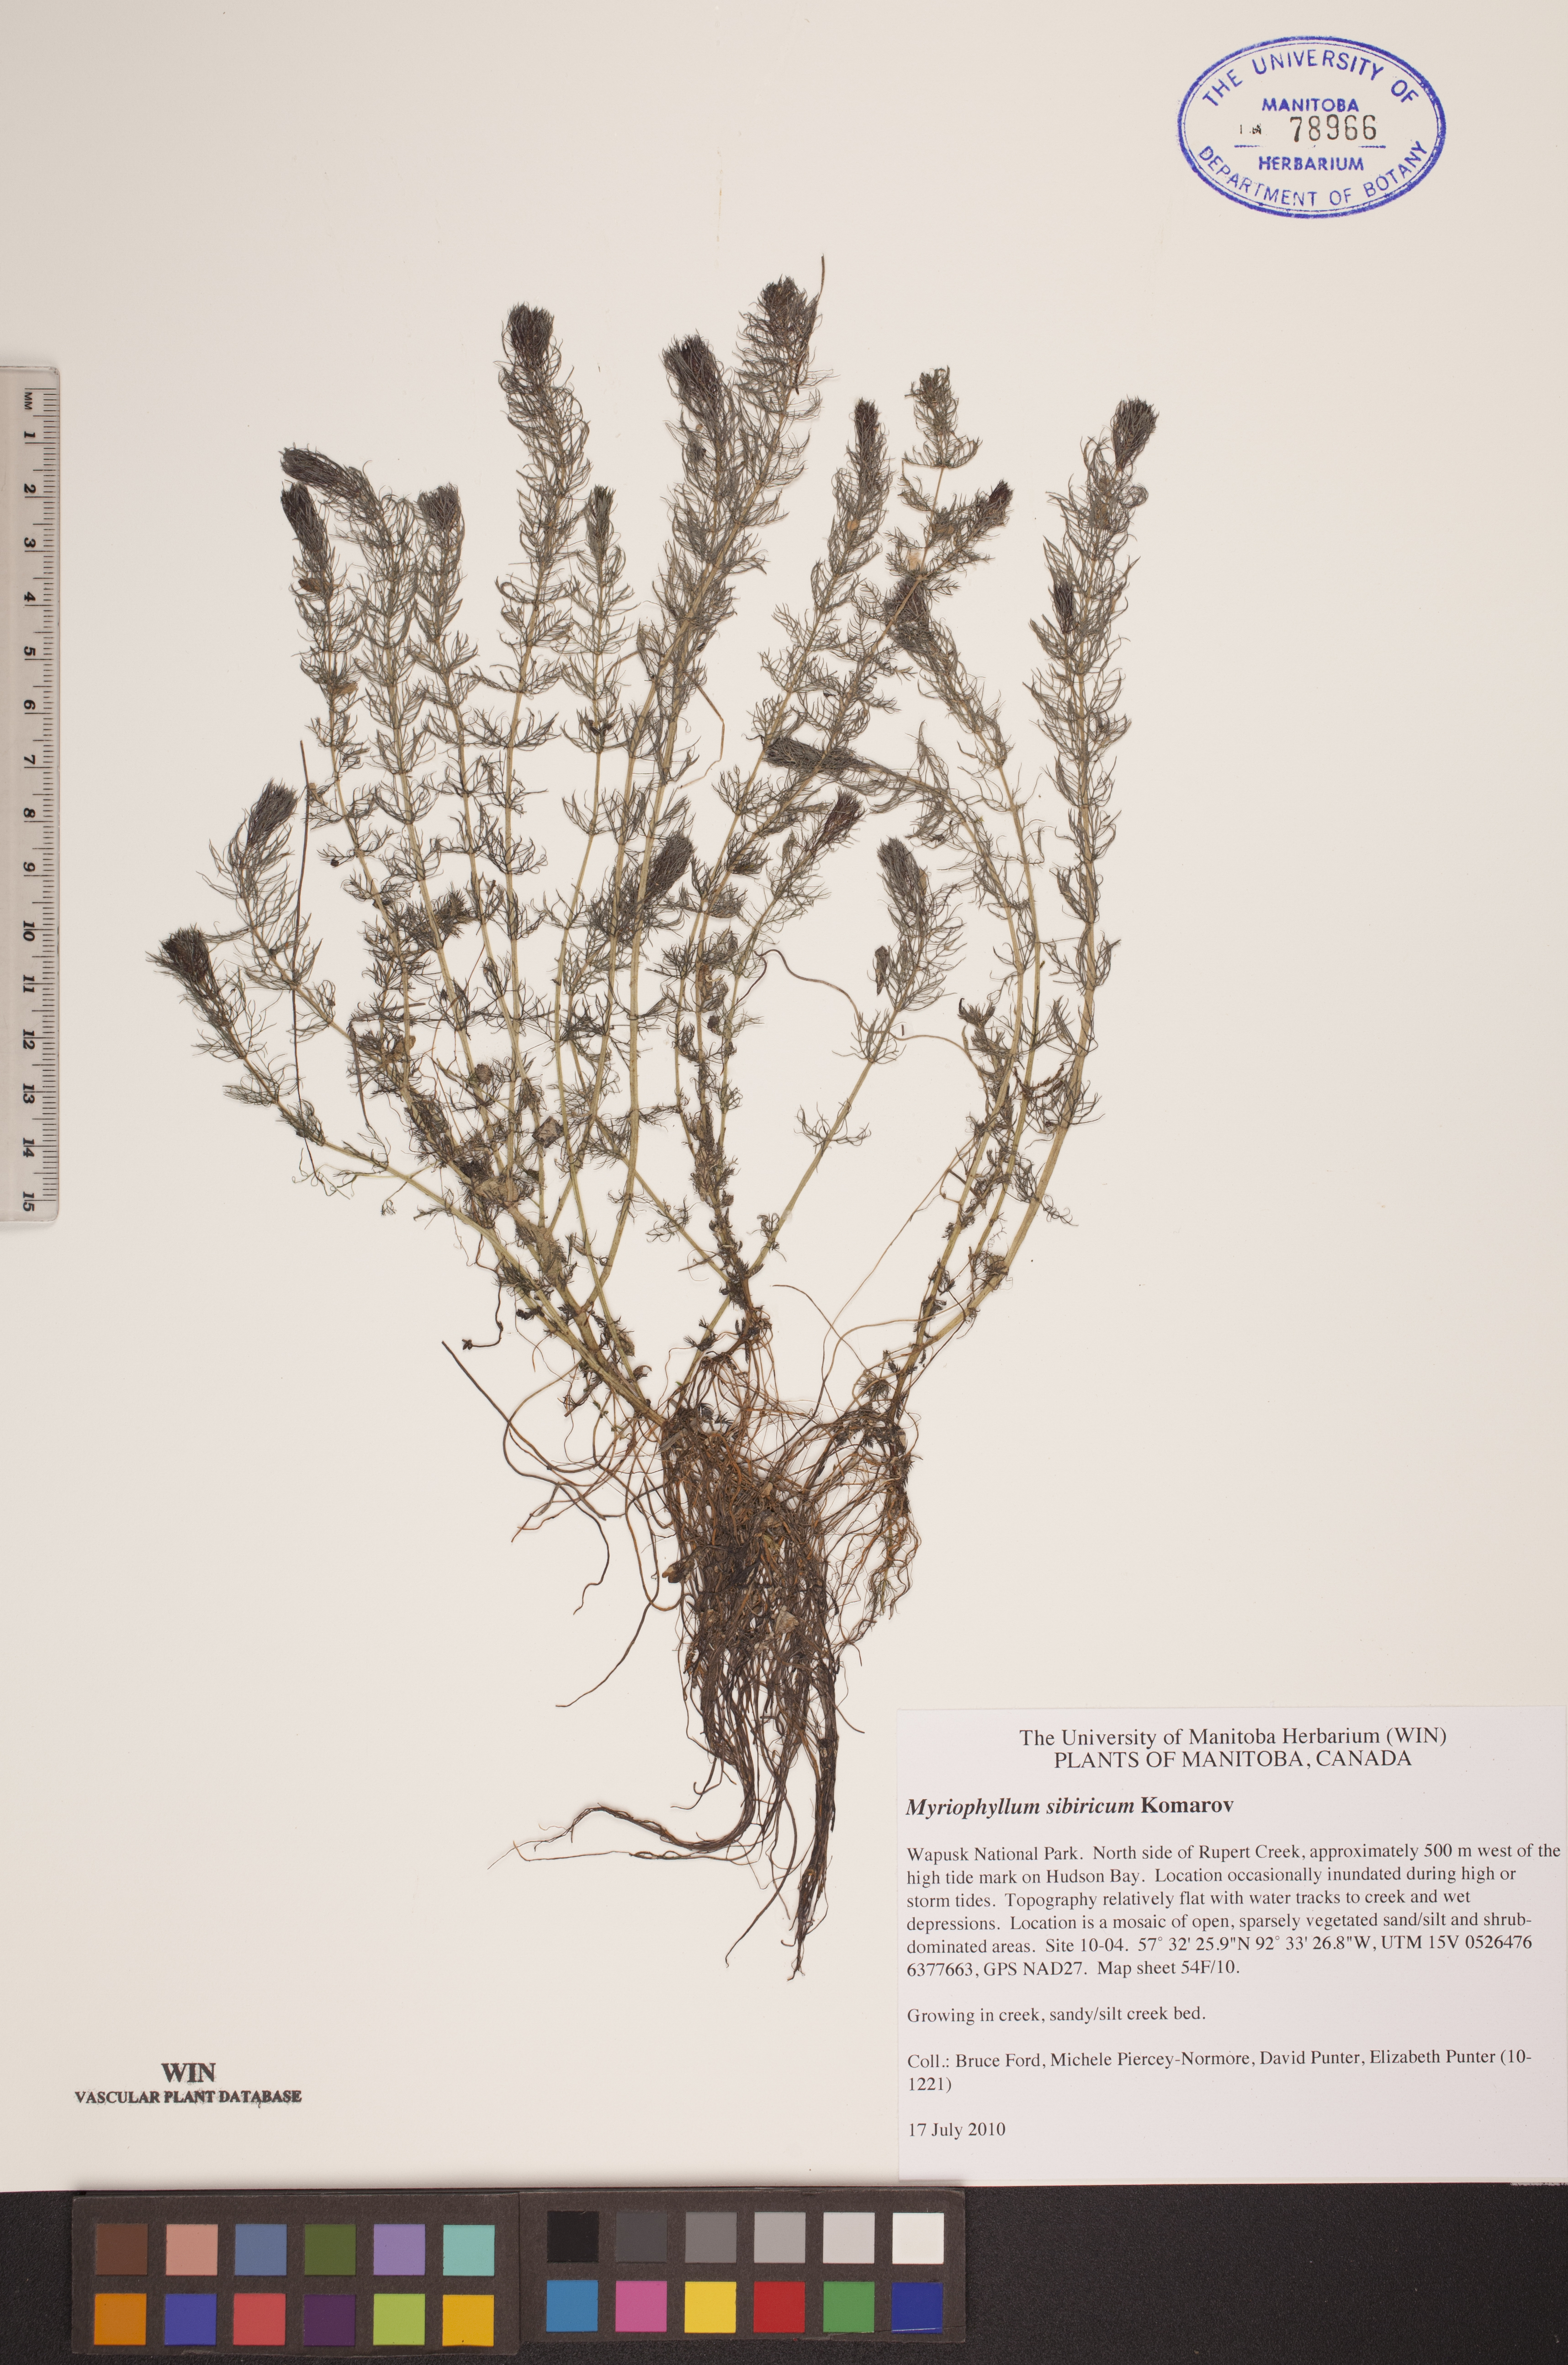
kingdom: Plantae
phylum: Tracheophyta
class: Magnoliopsida
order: Saxifragales
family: Haloragaceae
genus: Myriophyllum
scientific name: Myriophyllum sibiricum
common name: Siberian water-milfoil
